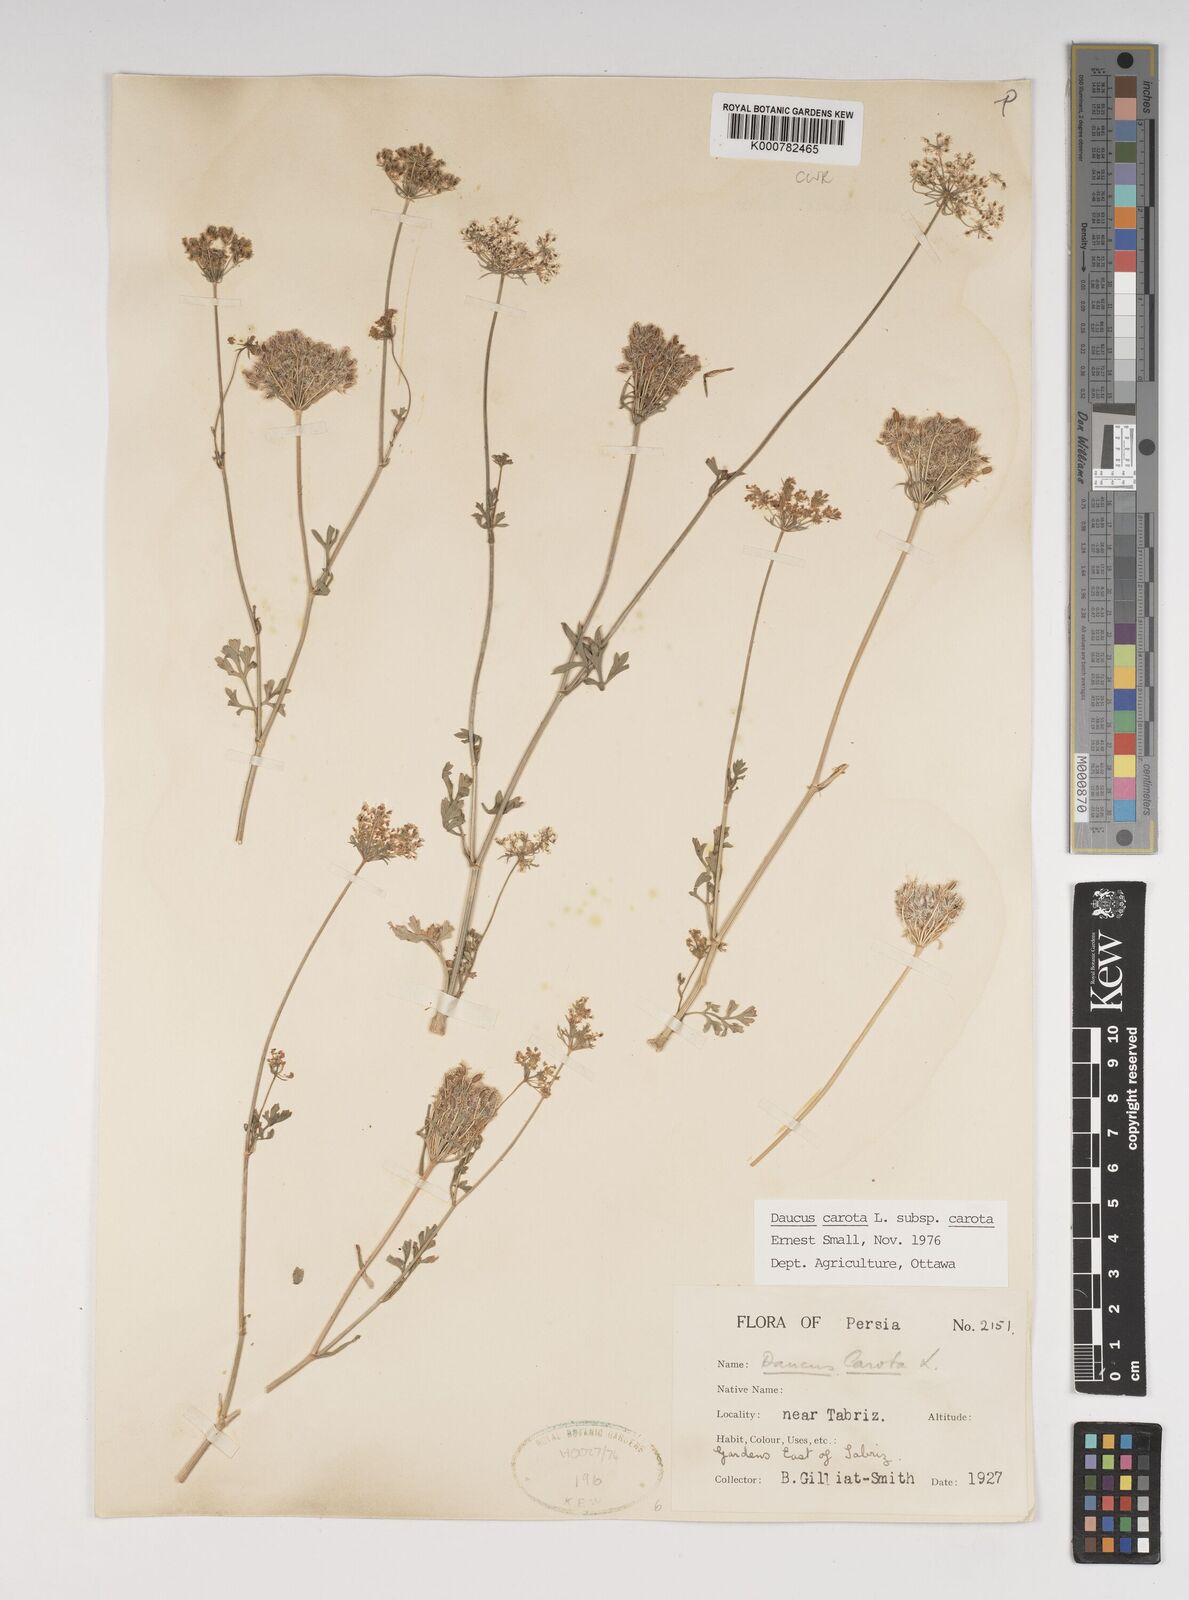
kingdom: Plantae
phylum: Tracheophyta
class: Magnoliopsida
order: Apiales
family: Apiaceae
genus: Daucus
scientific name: Daucus carota
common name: Wild carrot
